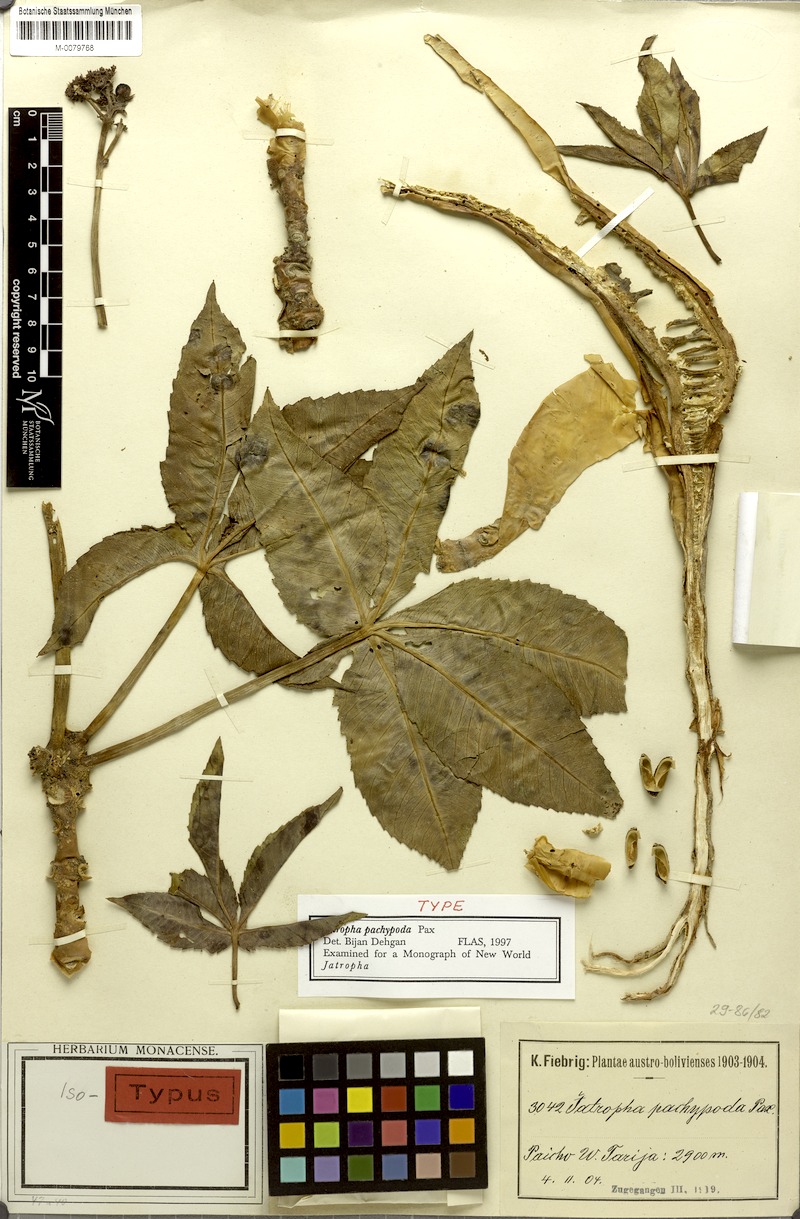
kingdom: Plantae
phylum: Tracheophyta
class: Magnoliopsida
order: Malpighiales
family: Euphorbiaceae
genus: Jatropha
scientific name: Jatropha pachypoda
